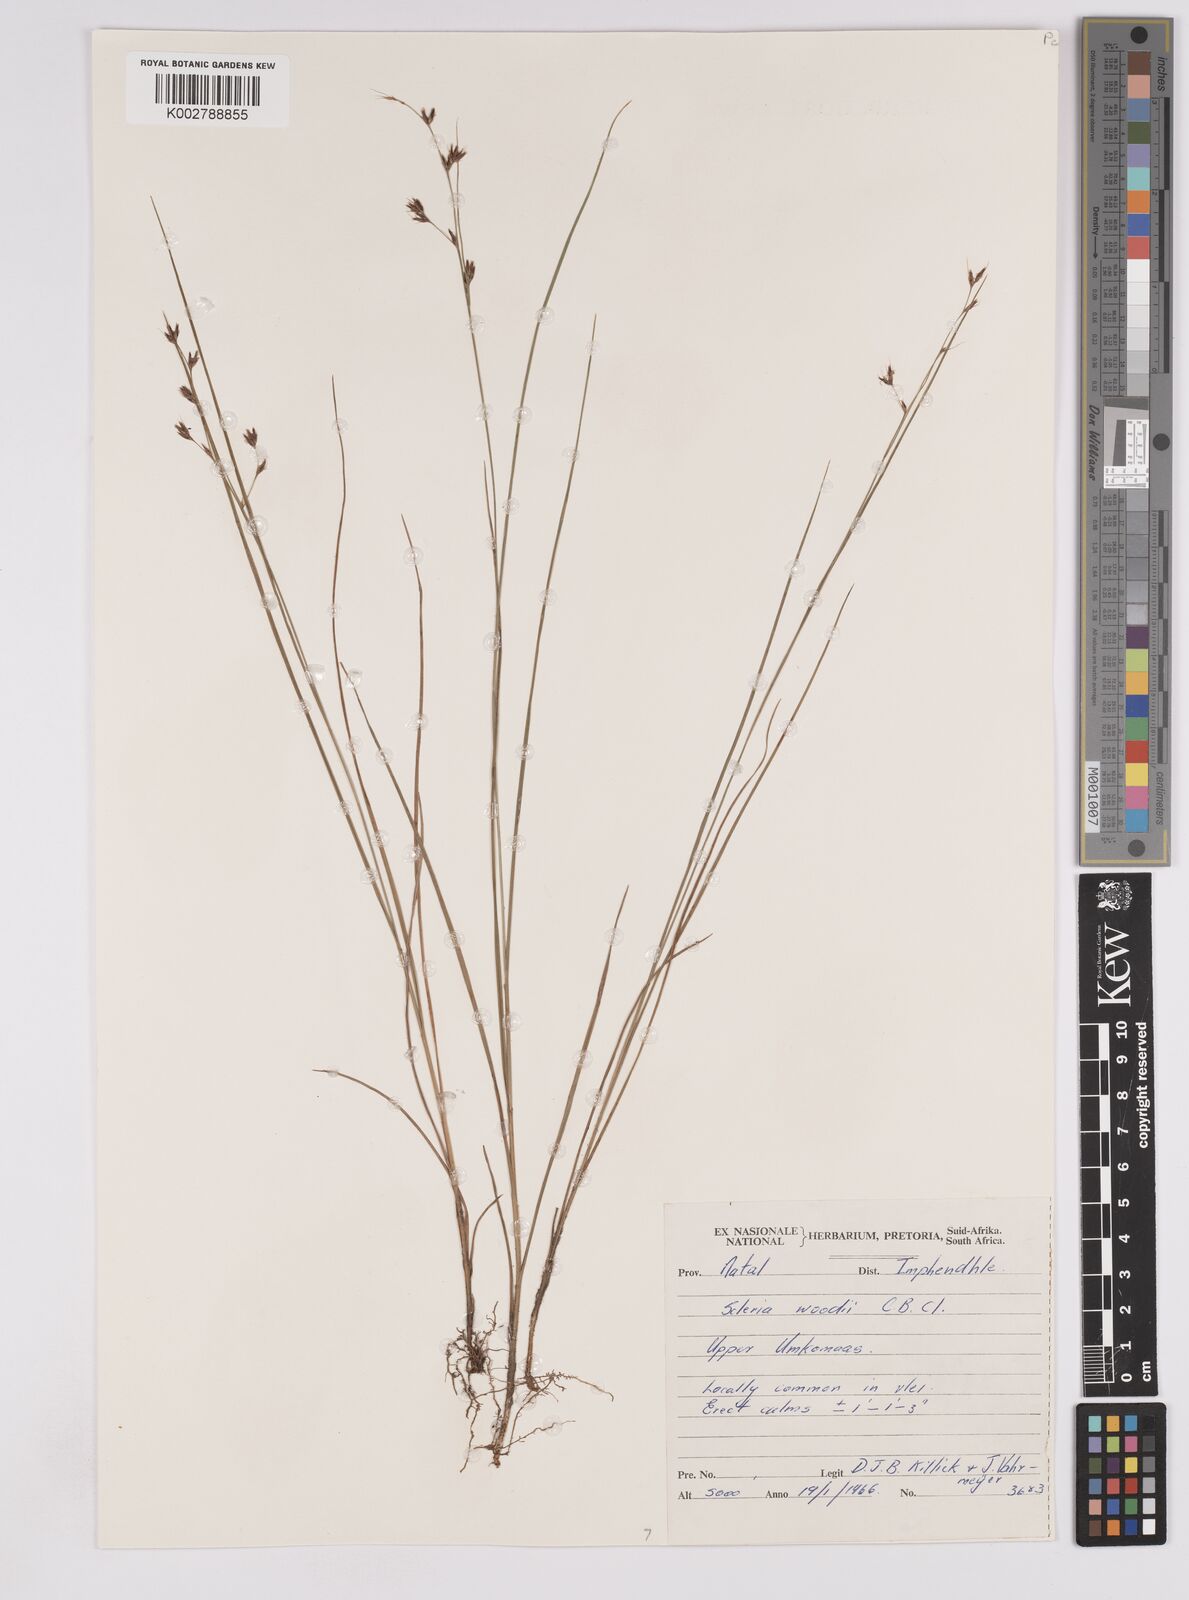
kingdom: Plantae
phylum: Tracheophyta
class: Liliopsida
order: Poales
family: Cyperaceae
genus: Scleria
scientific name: Scleria woodii
